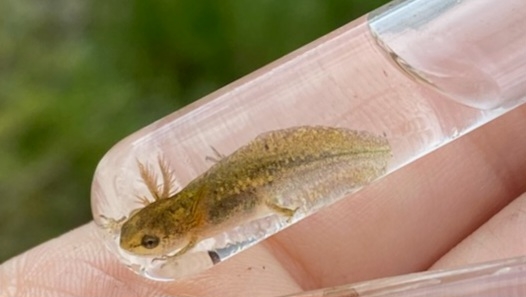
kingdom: Animalia
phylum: Chordata
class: Amphibia
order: Caudata
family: Salamandridae
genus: Lissotriton
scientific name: Lissotriton vulgaris
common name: Lille vandsalamander
